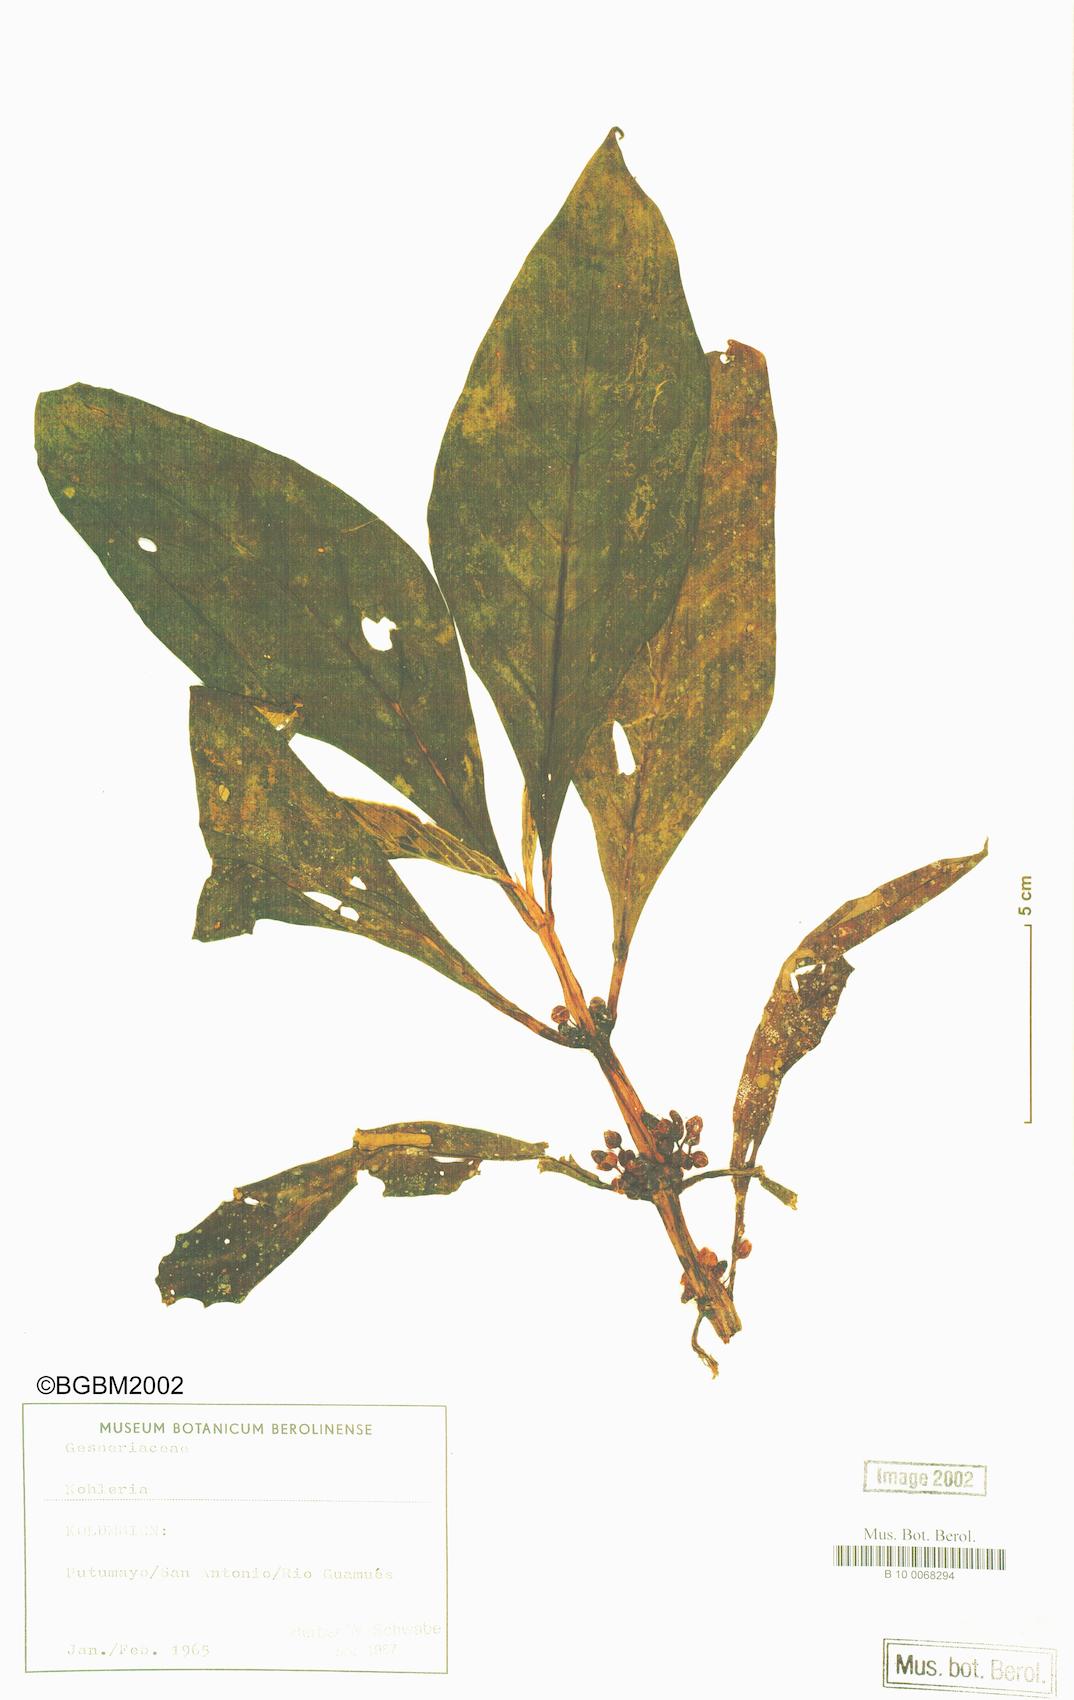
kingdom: Plantae
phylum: Tracheophyta
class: Magnoliopsida
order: Lamiales
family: Gesneriaceae
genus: Kohleria
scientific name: Kohleria
